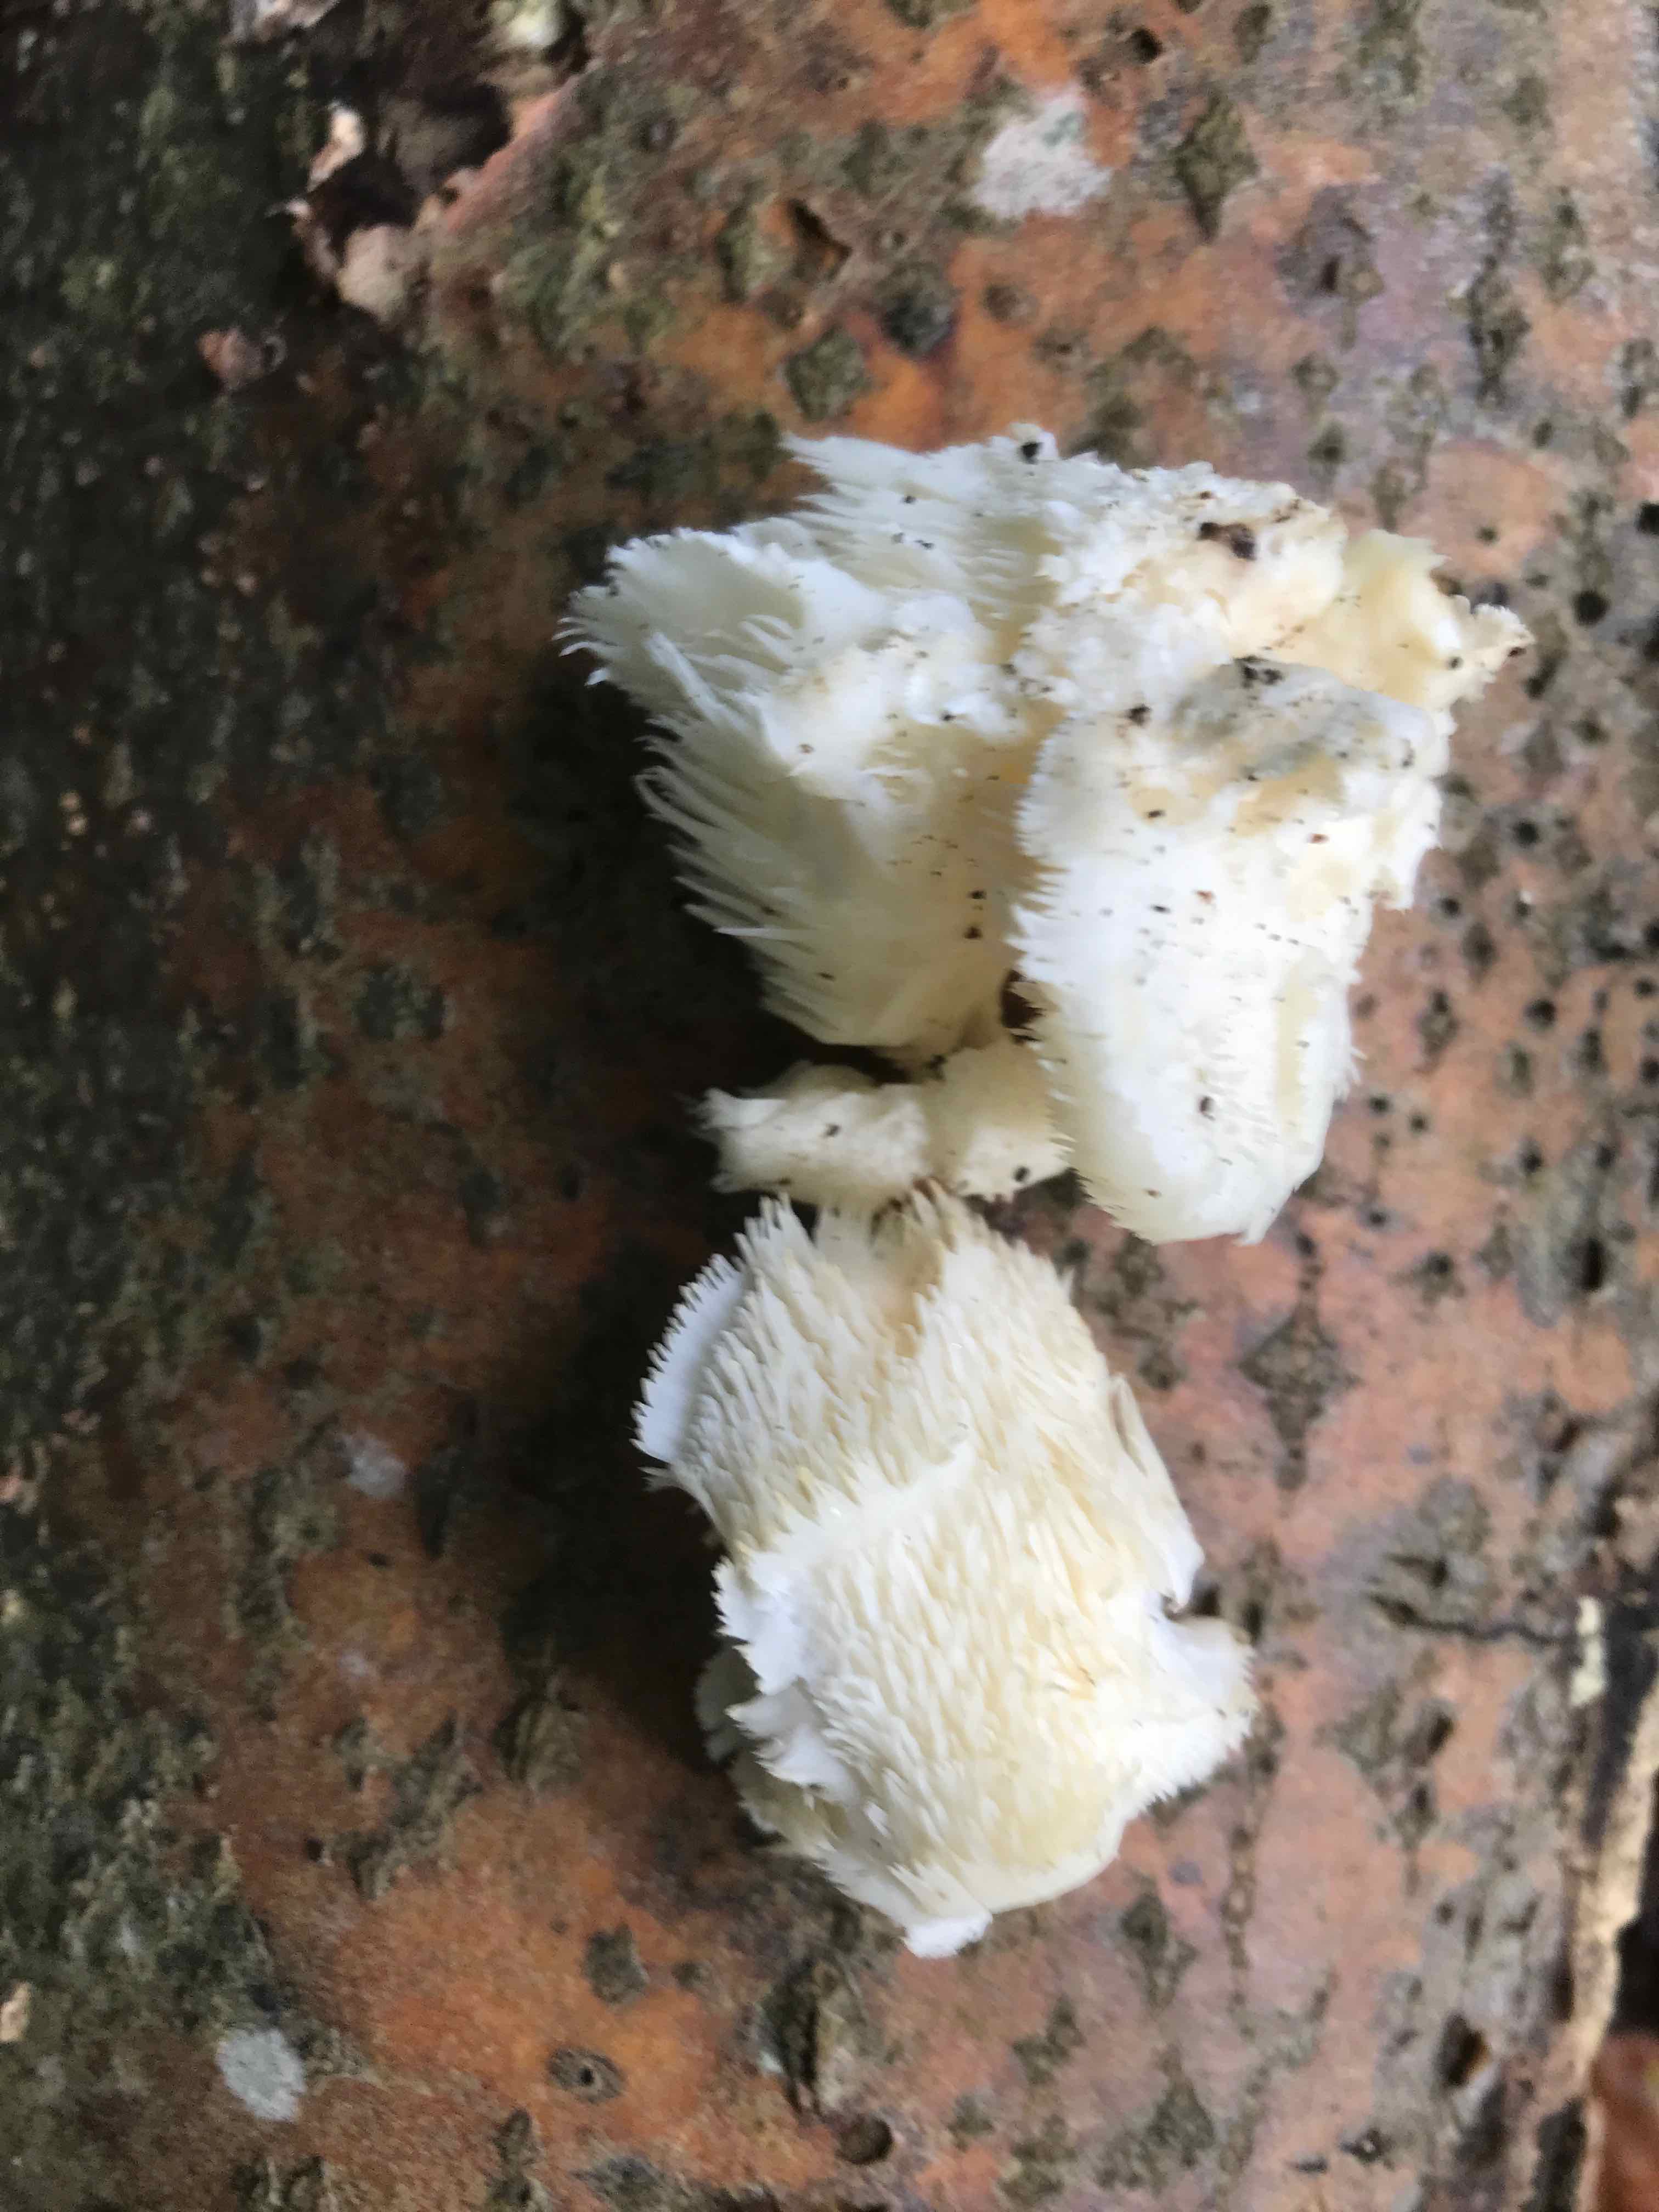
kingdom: Fungi
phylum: Basidiomycota
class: Agaricomycetes
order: Russulales
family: Hericiaceae
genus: Hericium
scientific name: Hericium cirrhatum
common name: børstepigsvamp
